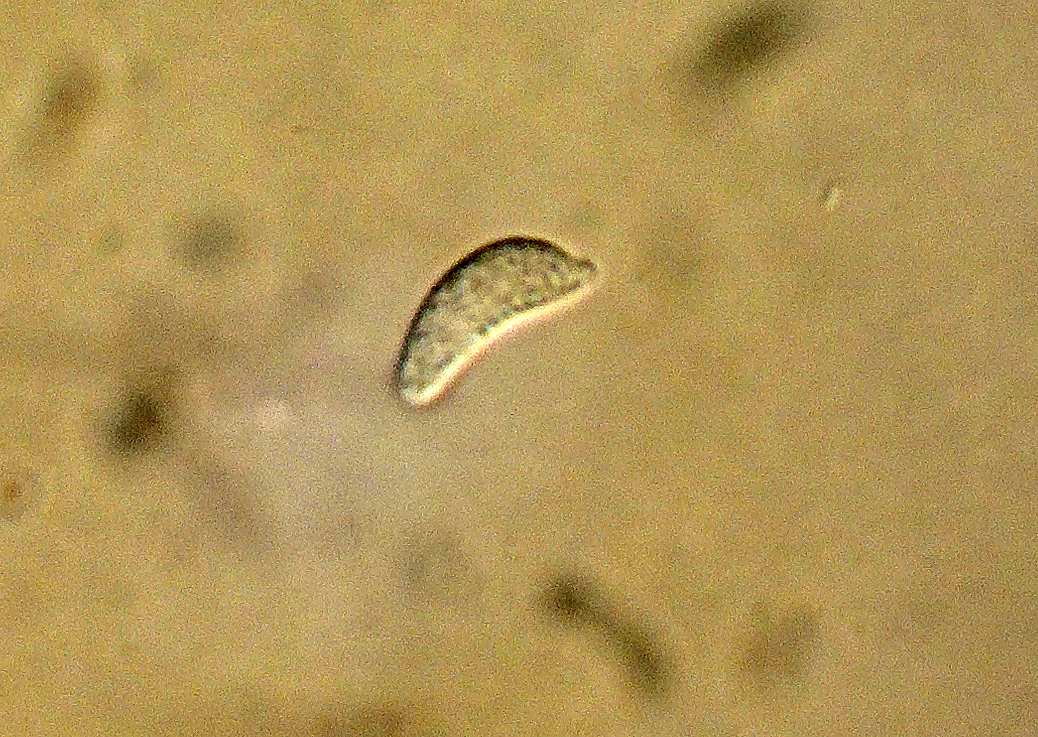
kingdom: Fungi
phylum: Basidiomycota
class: Agaricomycetes
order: Atheliales
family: Atheliaceae
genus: Athelopsis
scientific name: Athelopsis lembospora
